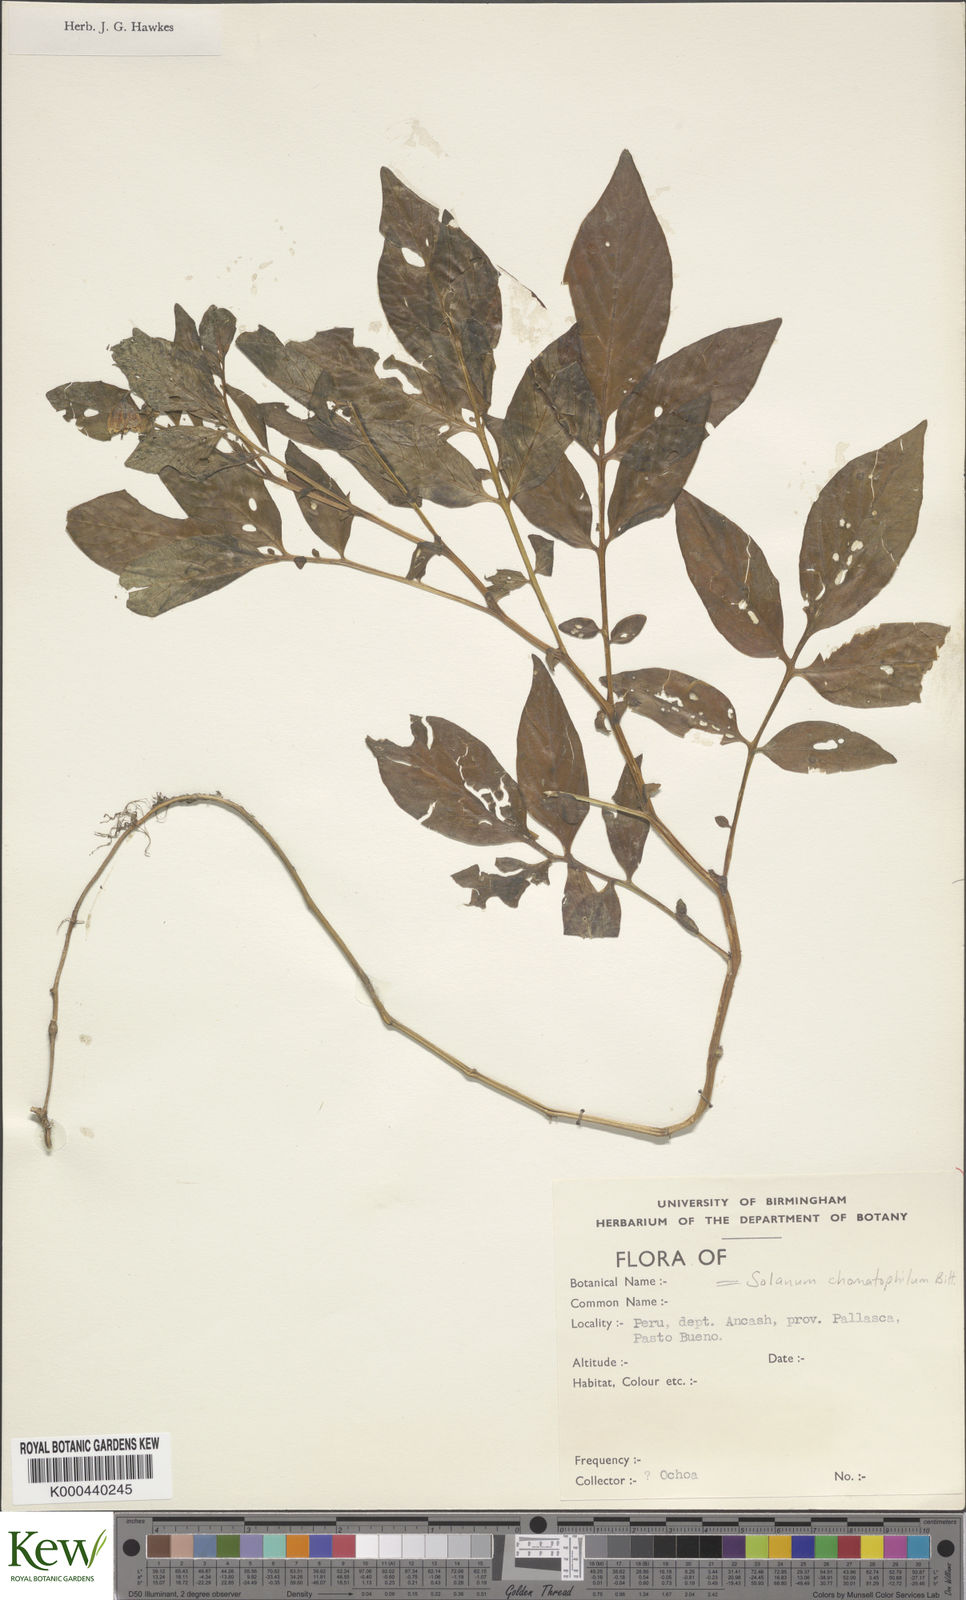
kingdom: Plantae
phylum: Tracheophyta
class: Magnoliopsida
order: Solanales
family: Solanaceae
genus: Solanum
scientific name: Solanum chomatophilum
